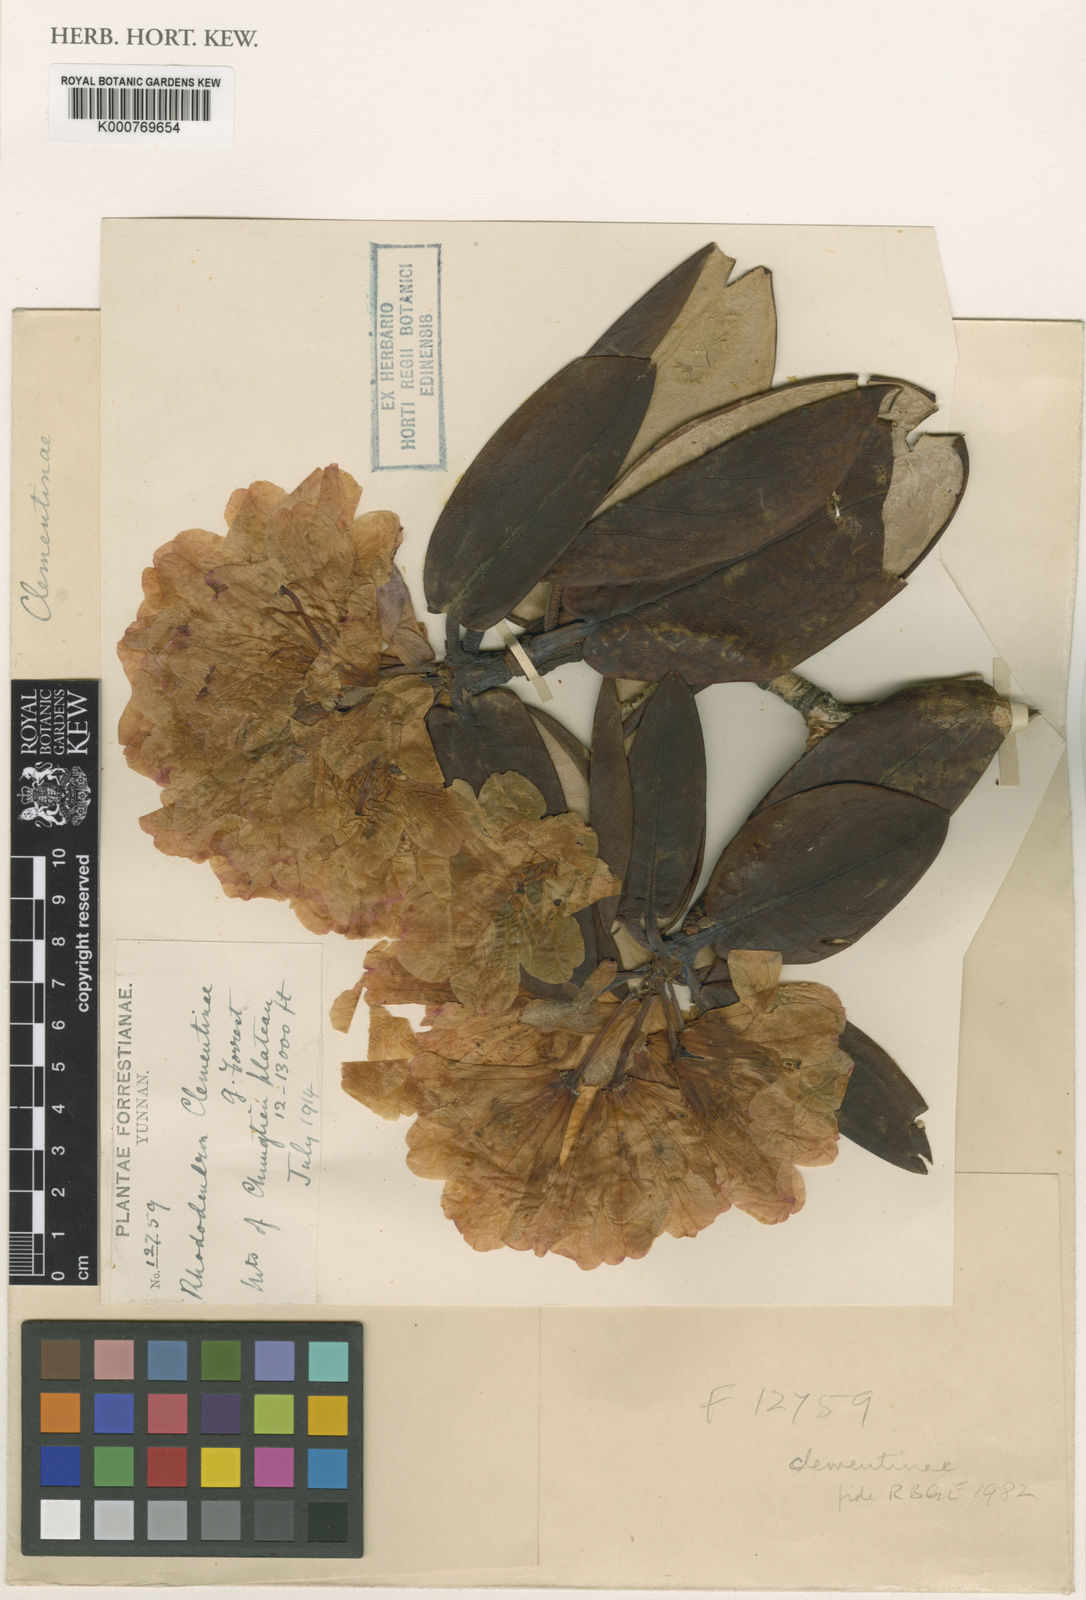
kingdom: Plantae
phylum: Tracheophyta
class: Magnoliopsida
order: Ericales
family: Ericaceae
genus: Rhododendron
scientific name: Rhododendron
